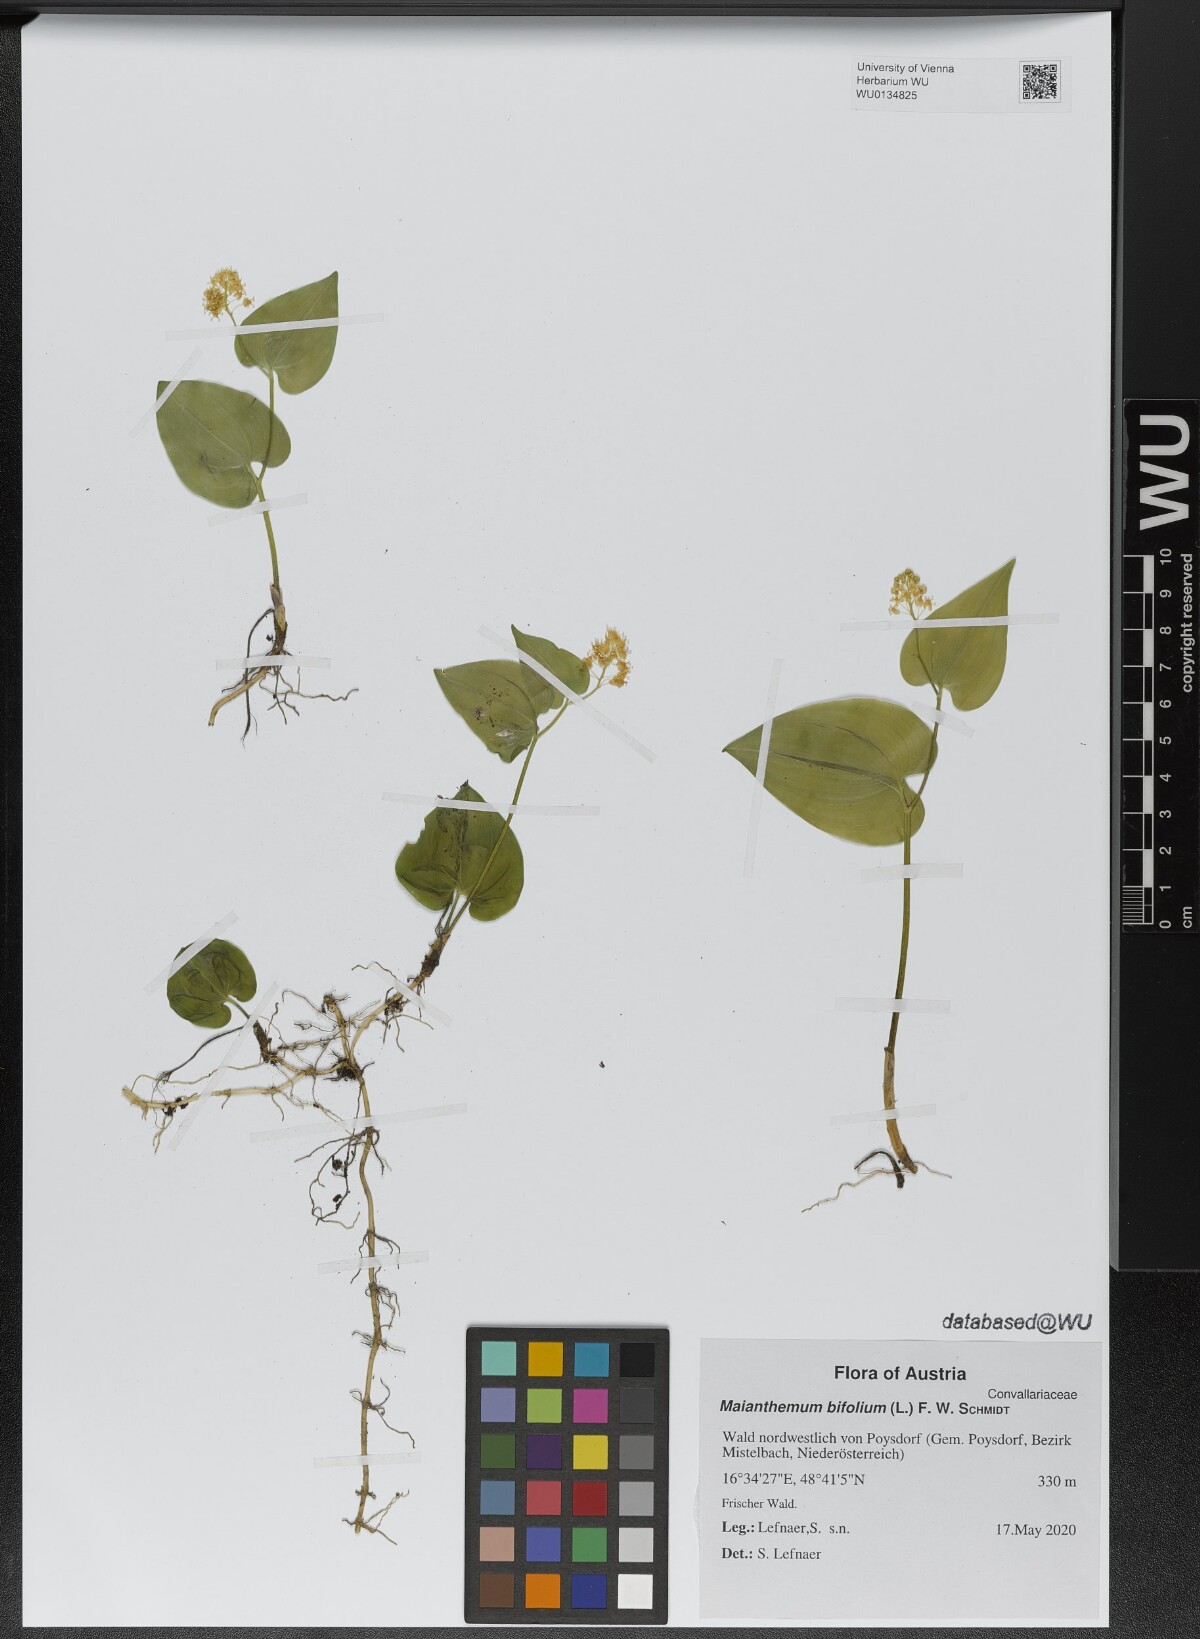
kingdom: Plantae
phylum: Tracheophyta
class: Liliopsida
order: Asparagales
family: Asparagaceae
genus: Maianthemum
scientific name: Maianthemum bifolium
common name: May lily
